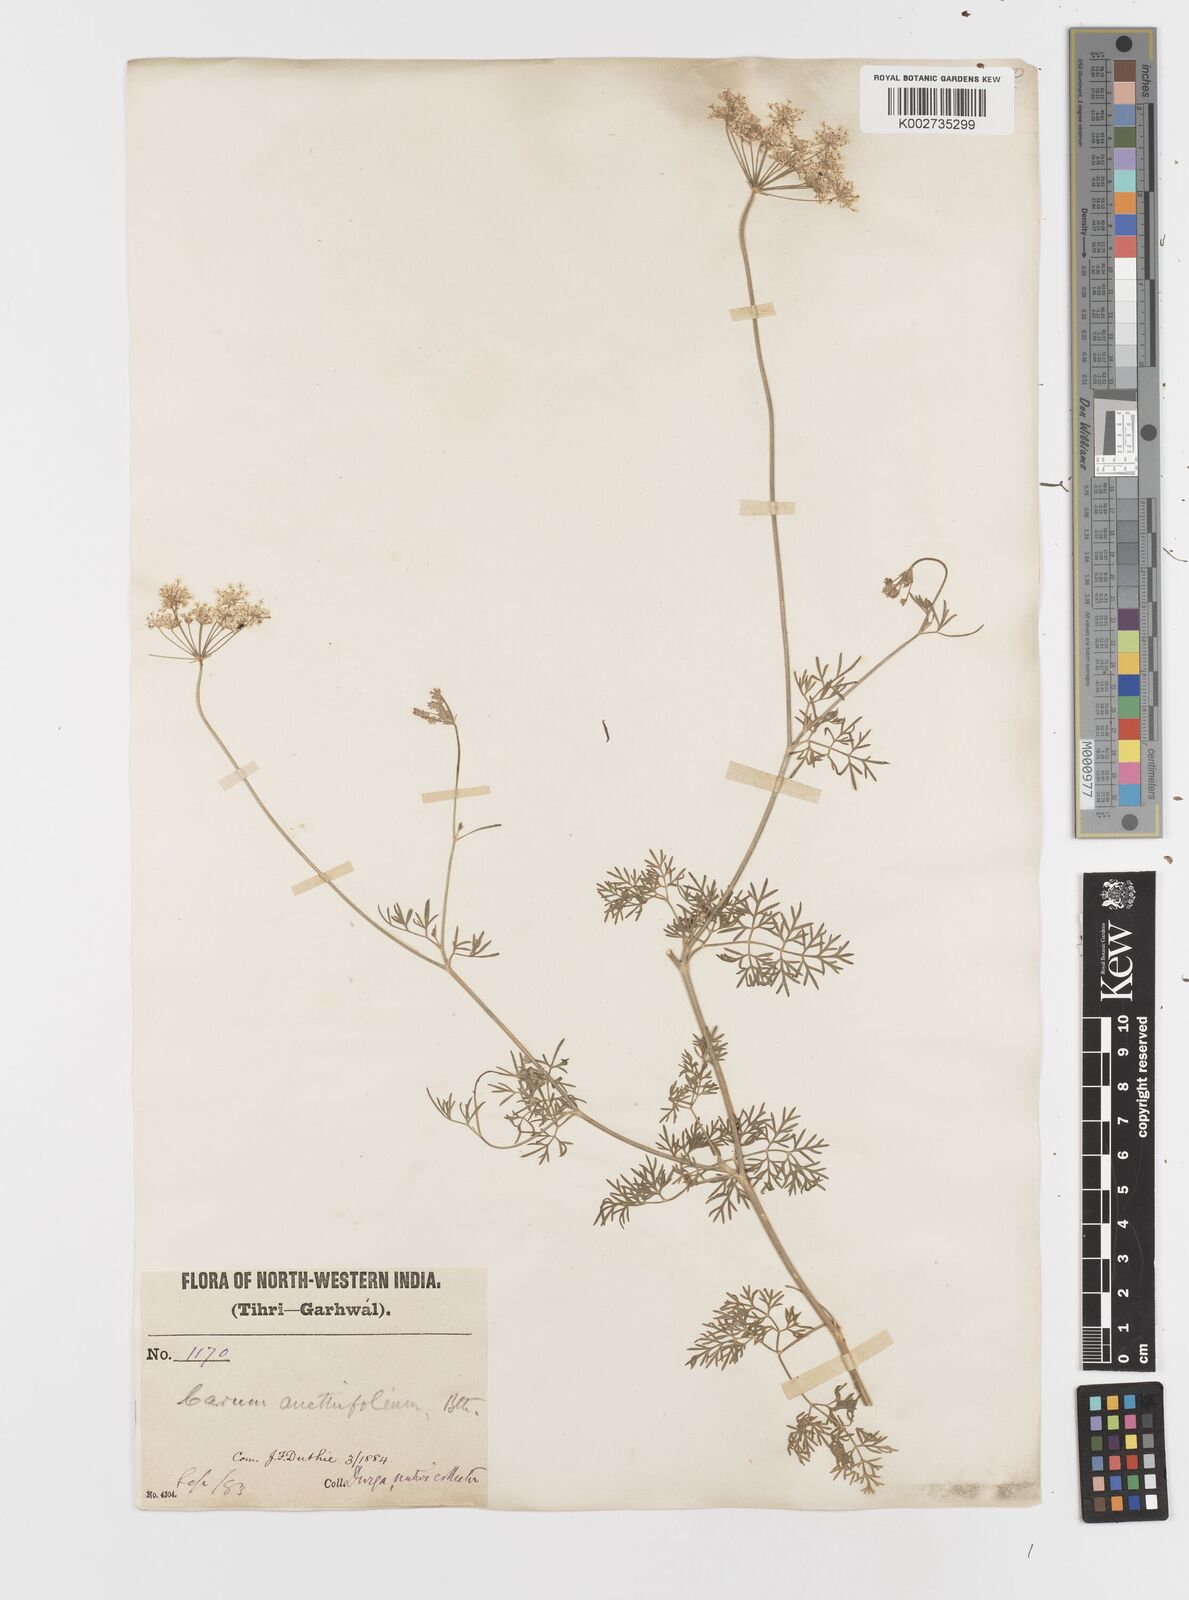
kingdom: Plantae
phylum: Tracheophyta
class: Magnoliopsida
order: Apiales
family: Apiaceae
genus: Psammogeton
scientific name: Psammogeton anethifolium
